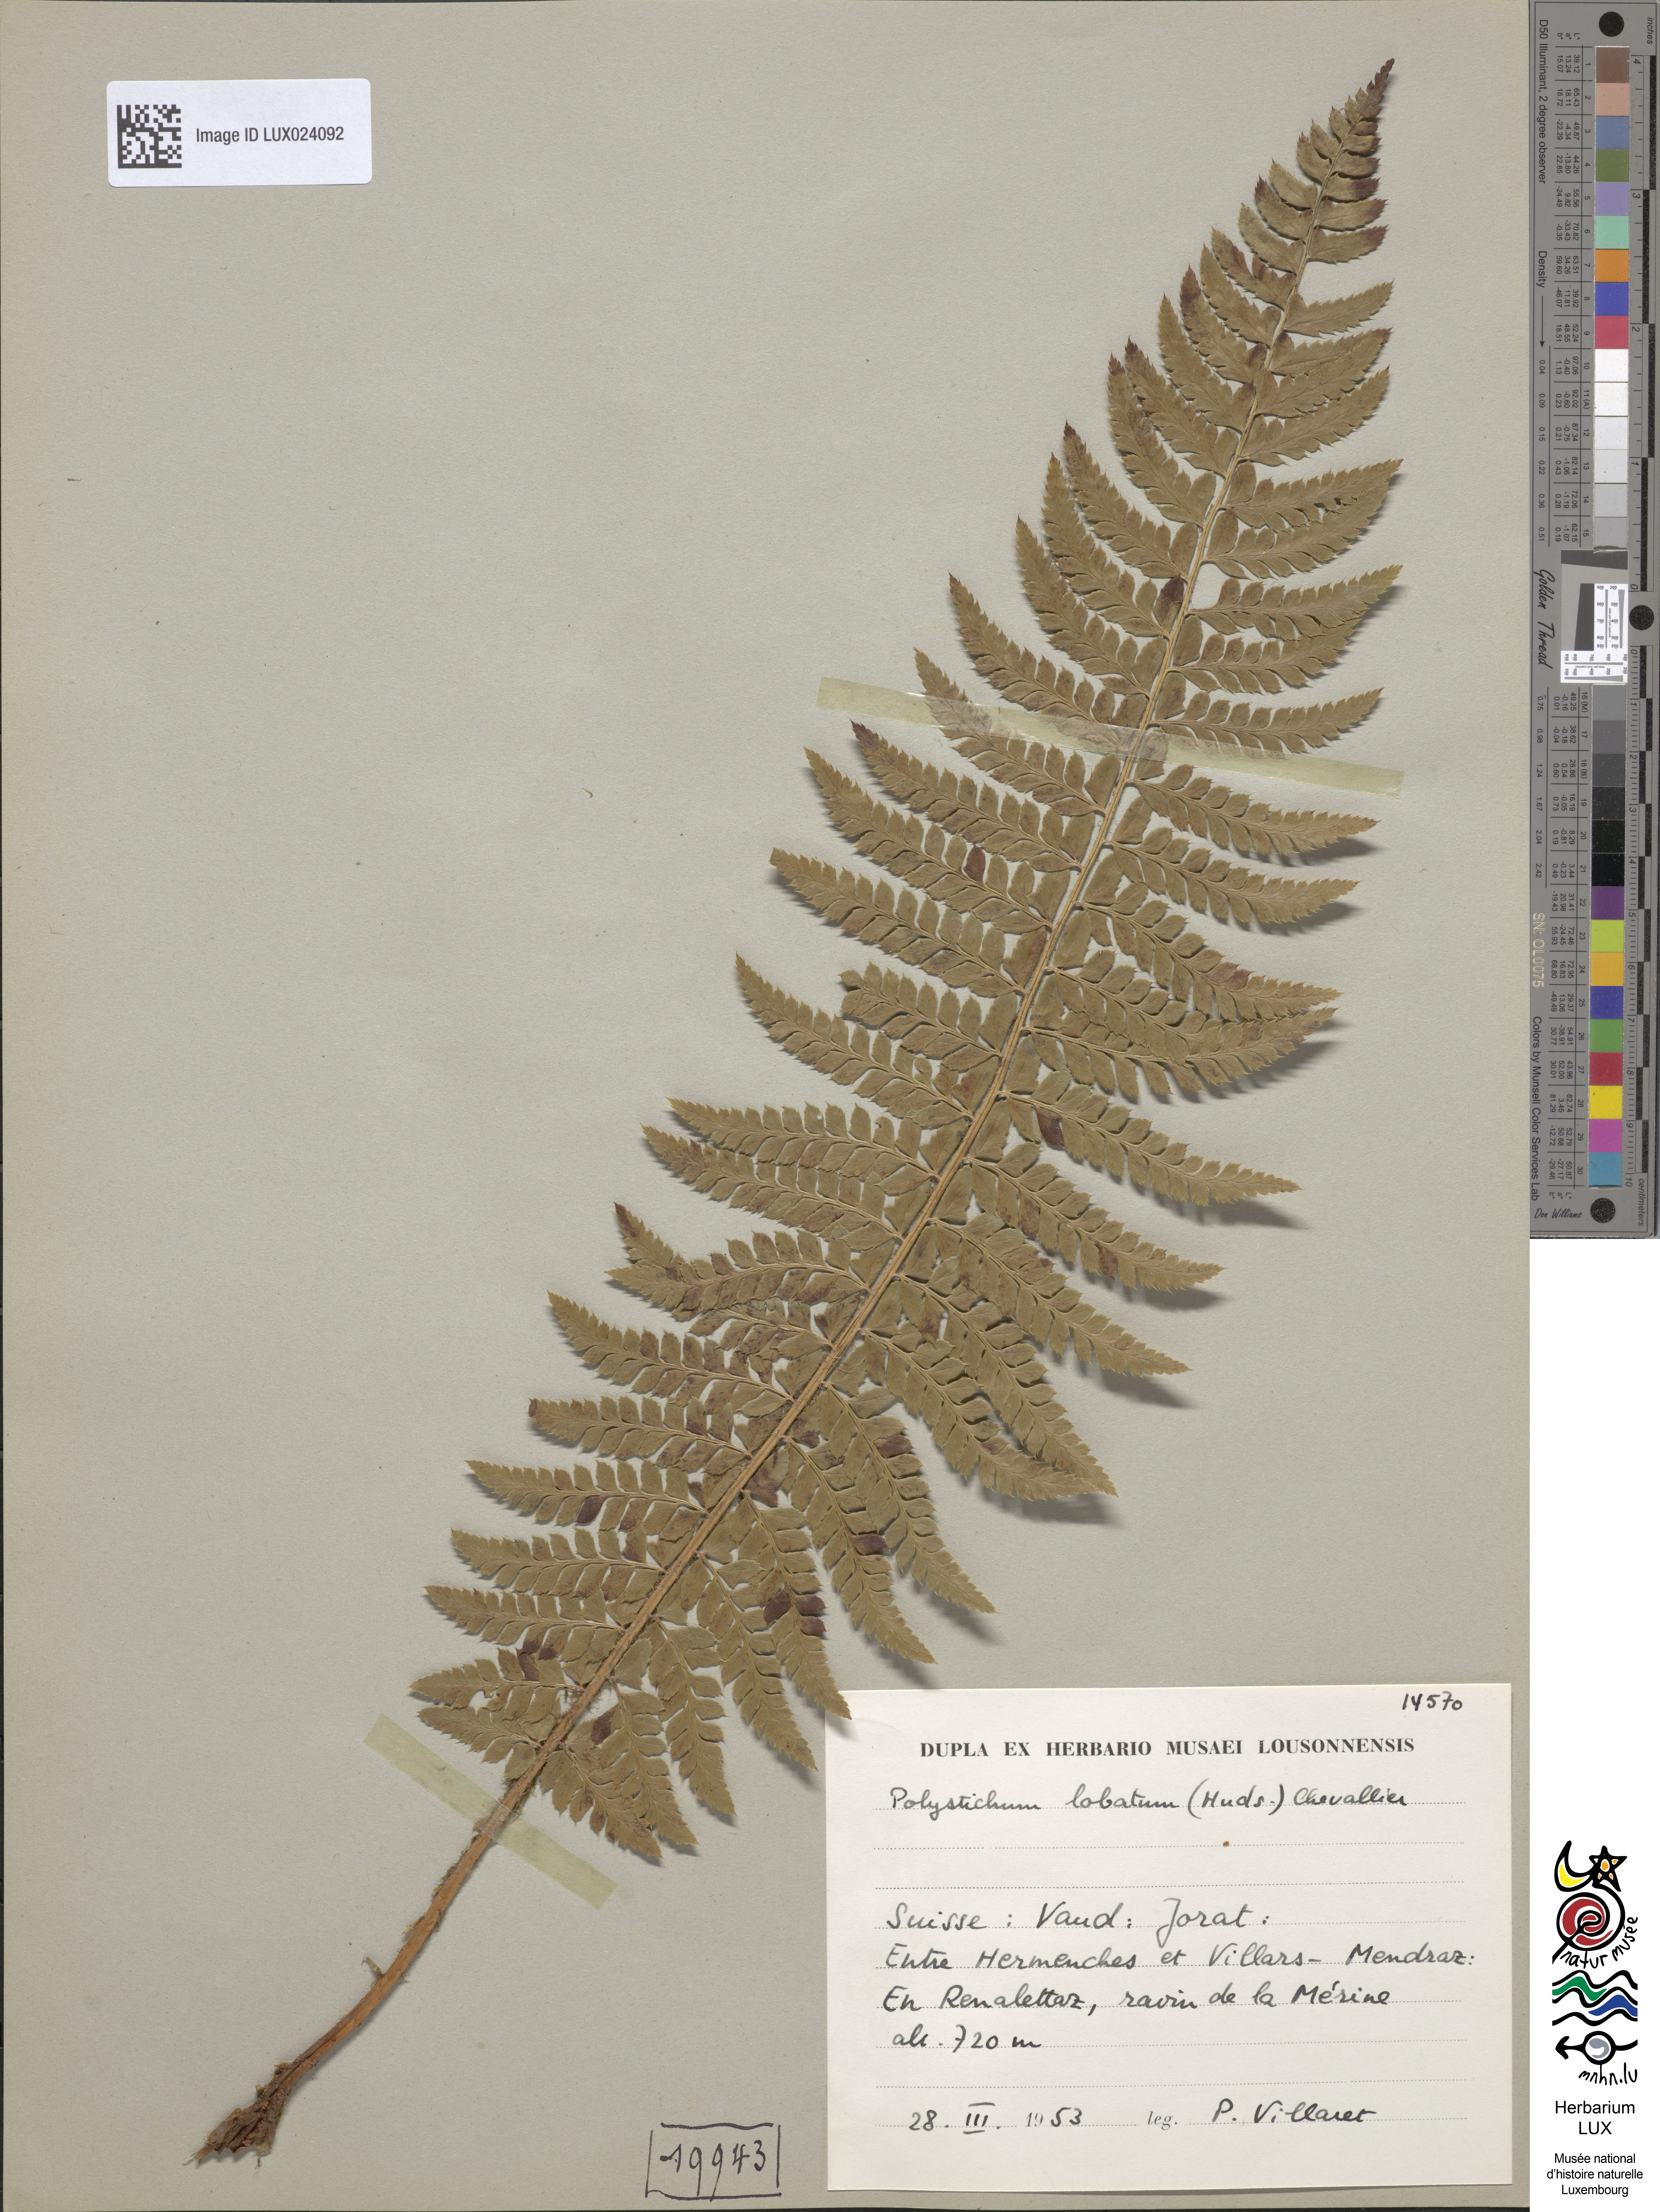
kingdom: Plantae
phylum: Tracheophyta
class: Polypodiopsida
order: Polypodiales
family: Dryopteridaceae
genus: Polystichum
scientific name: Polystichum aculeatum
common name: Hard shield-fern
